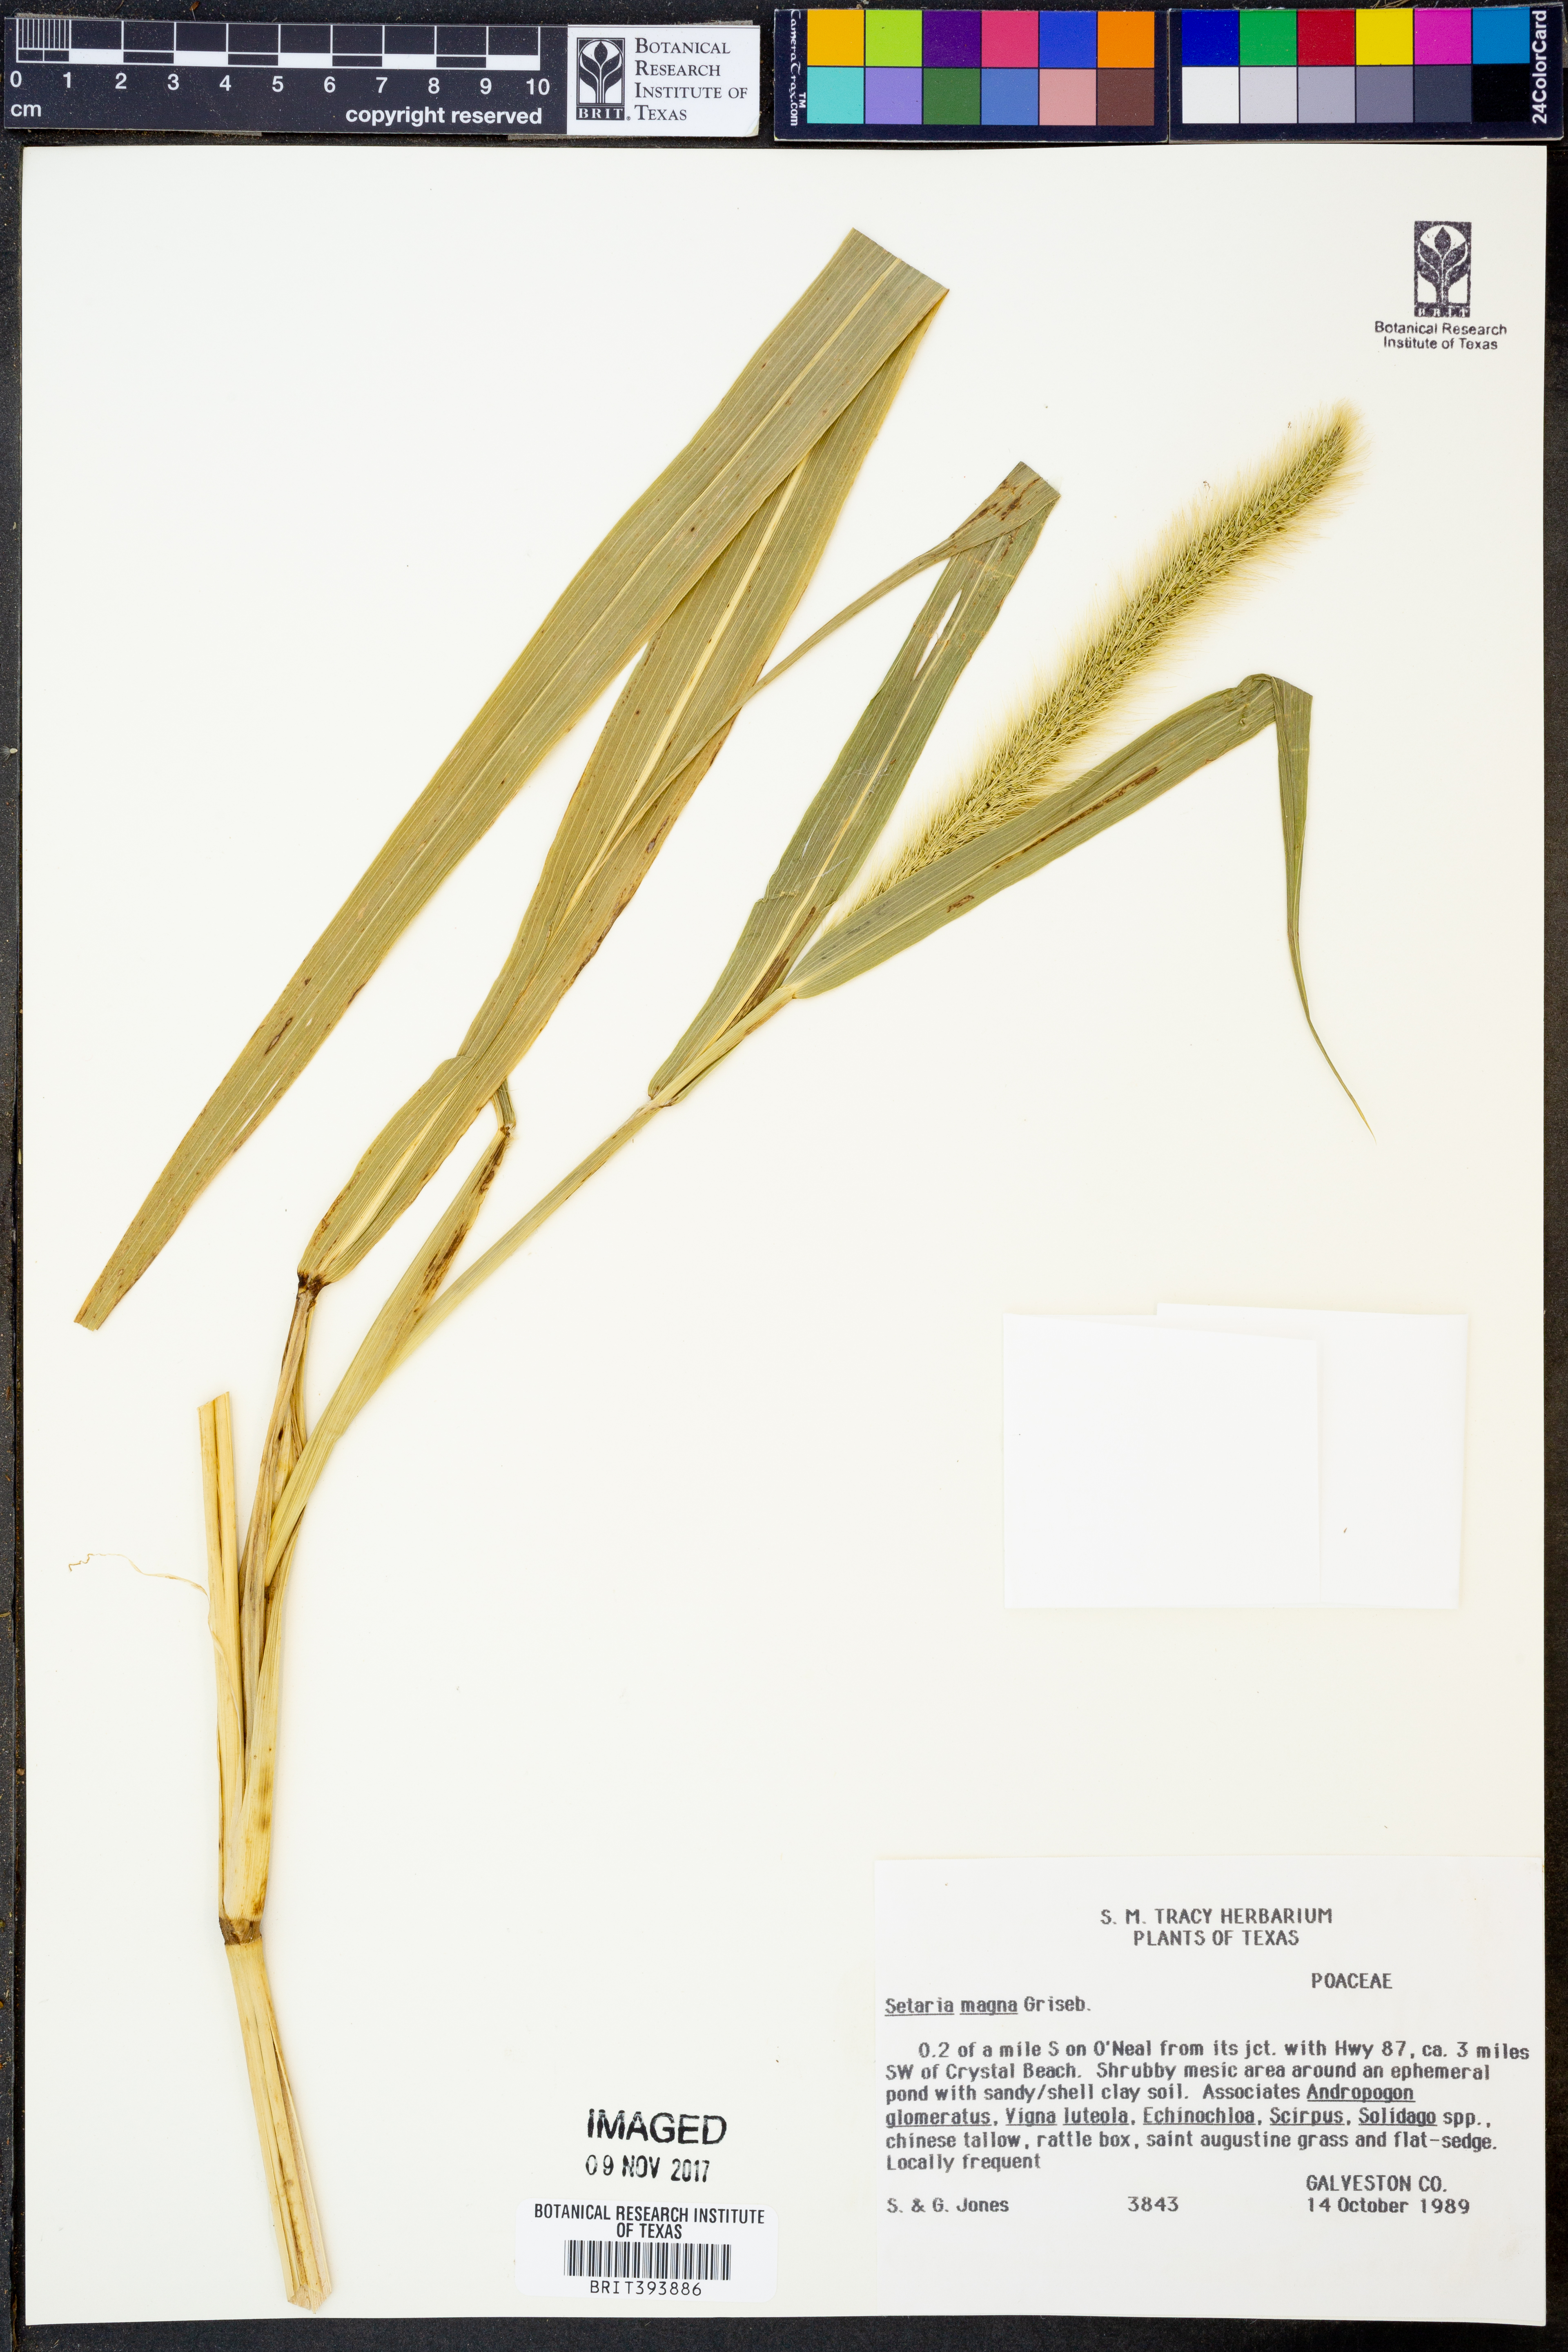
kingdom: Plantae
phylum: Tracheophyta
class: Liliopsida
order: Poales
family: Poaceae
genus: Setaria
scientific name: Setaria magna
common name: Giant bristle grass
